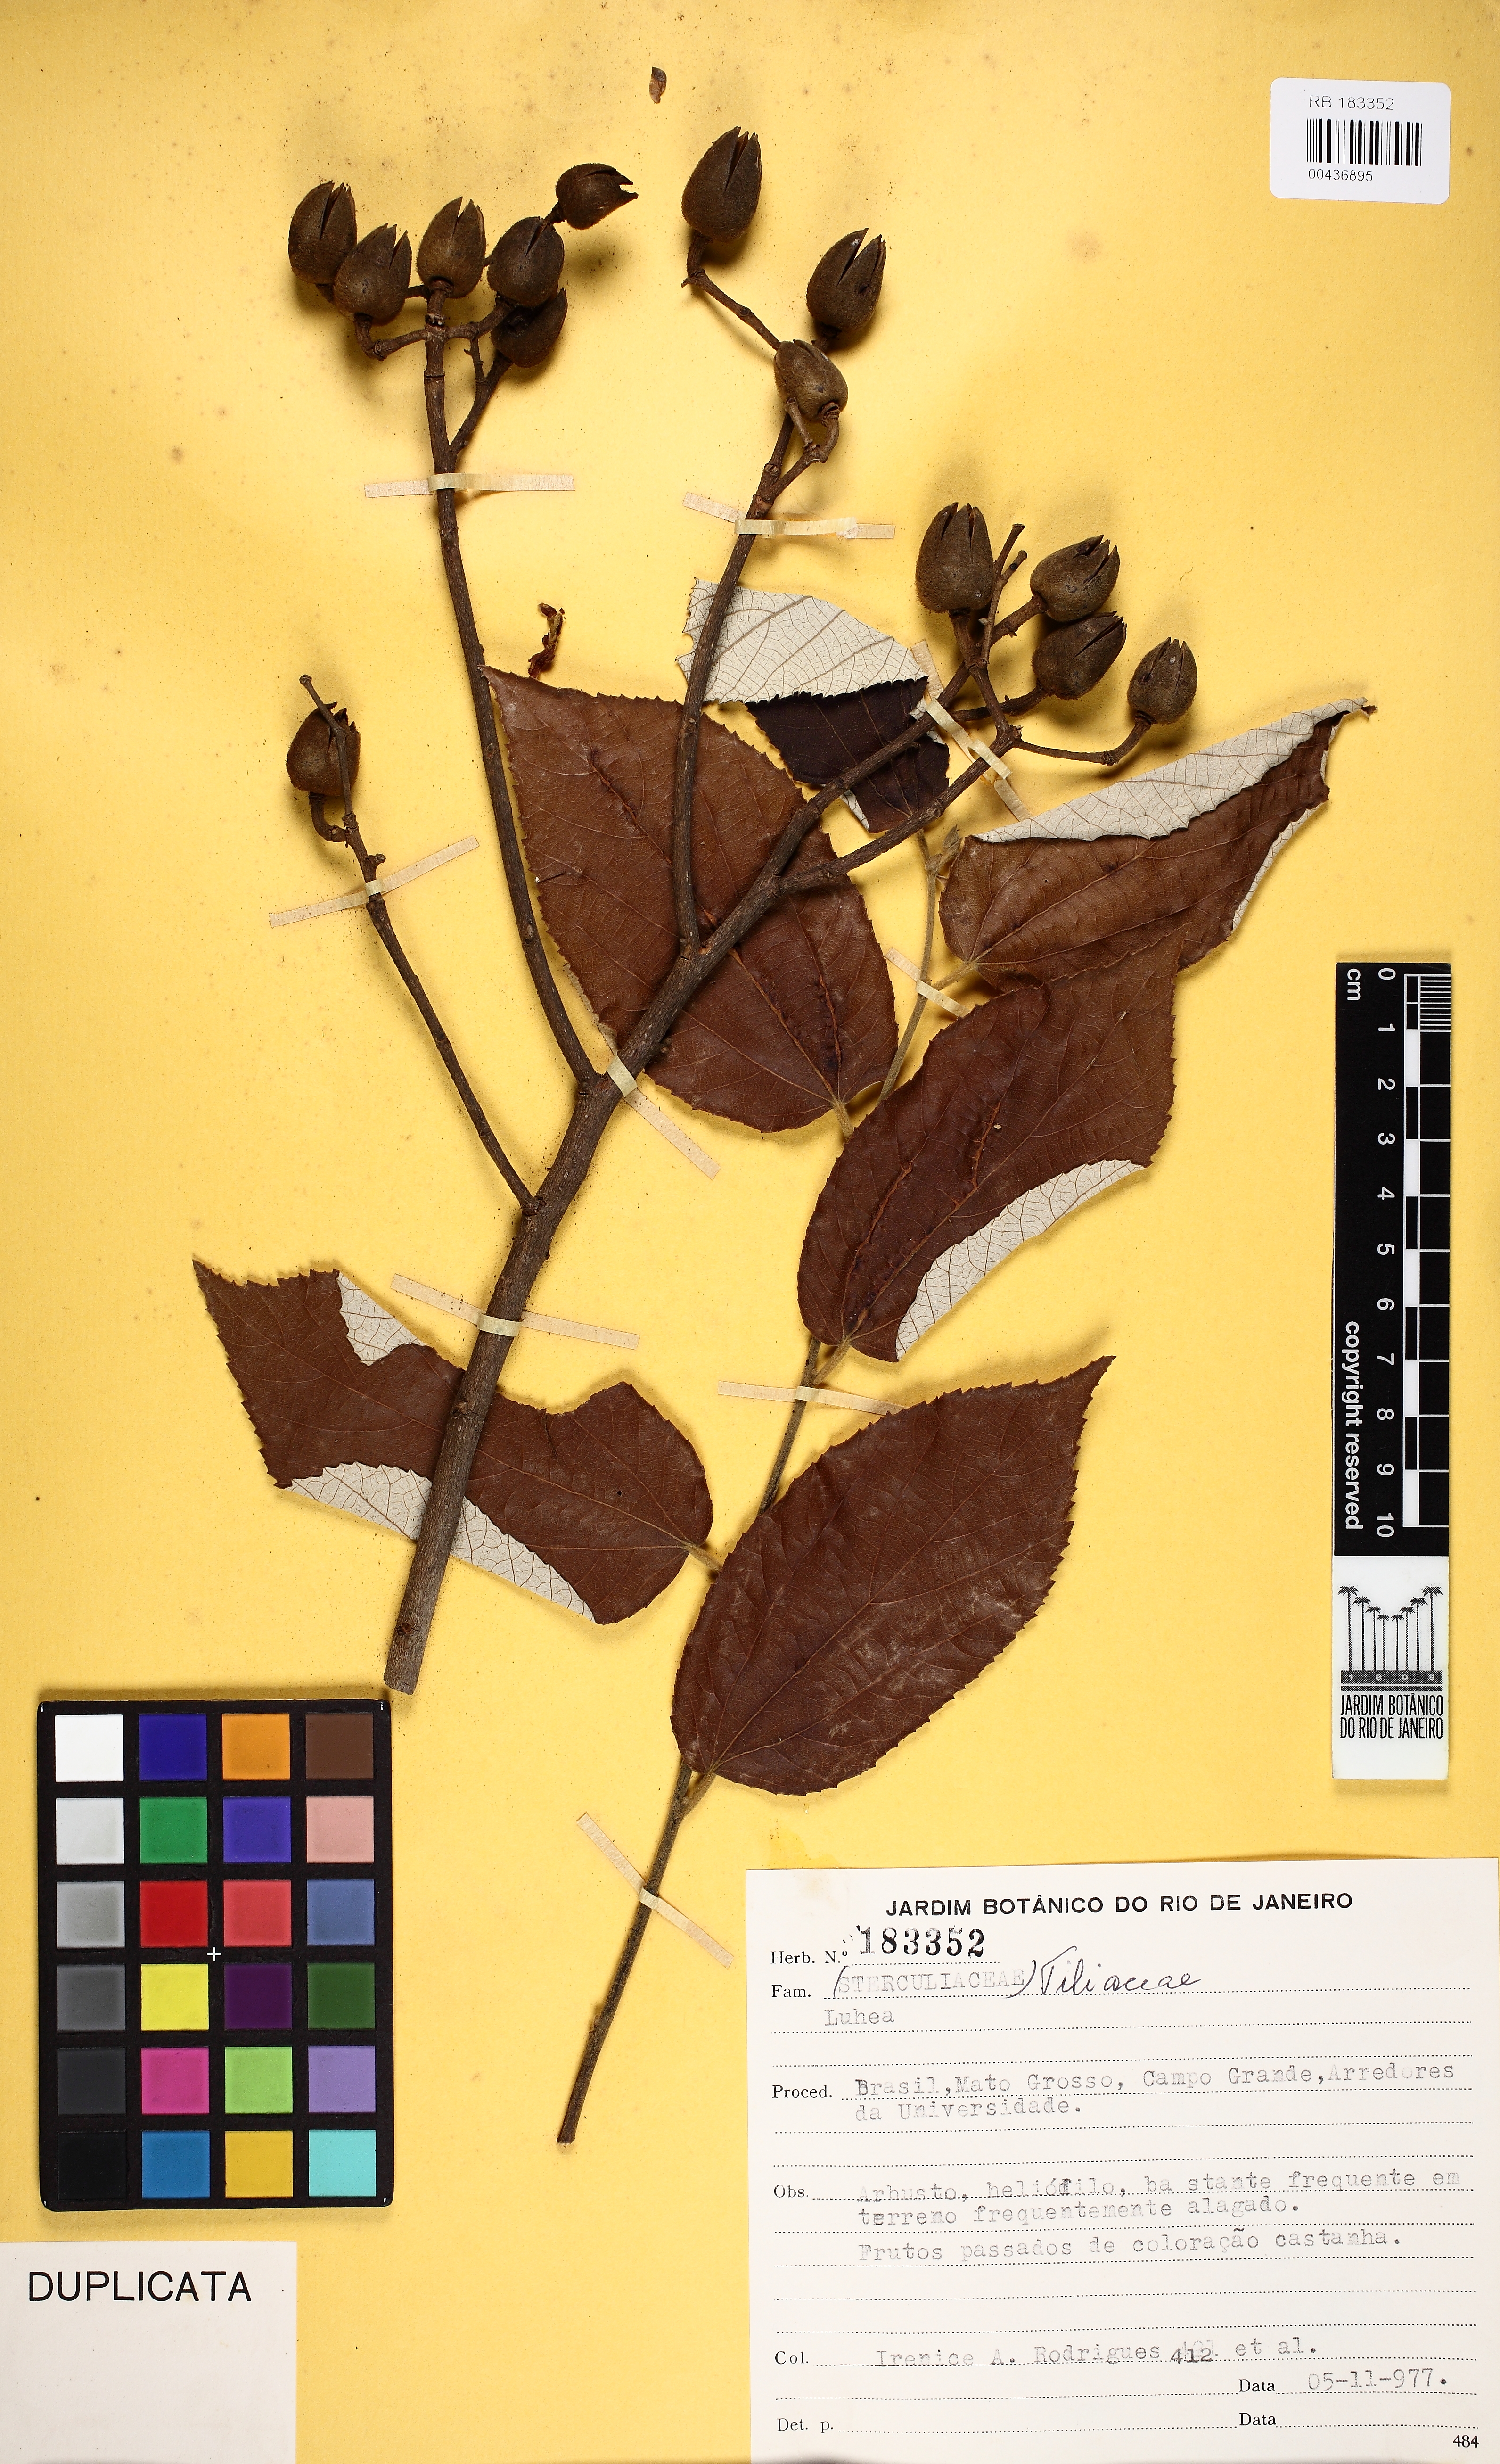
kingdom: Plantae
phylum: Tracheophyta
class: Magnoliopsida
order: Malvales
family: Malvaceae
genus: Luehea
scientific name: Luehea
